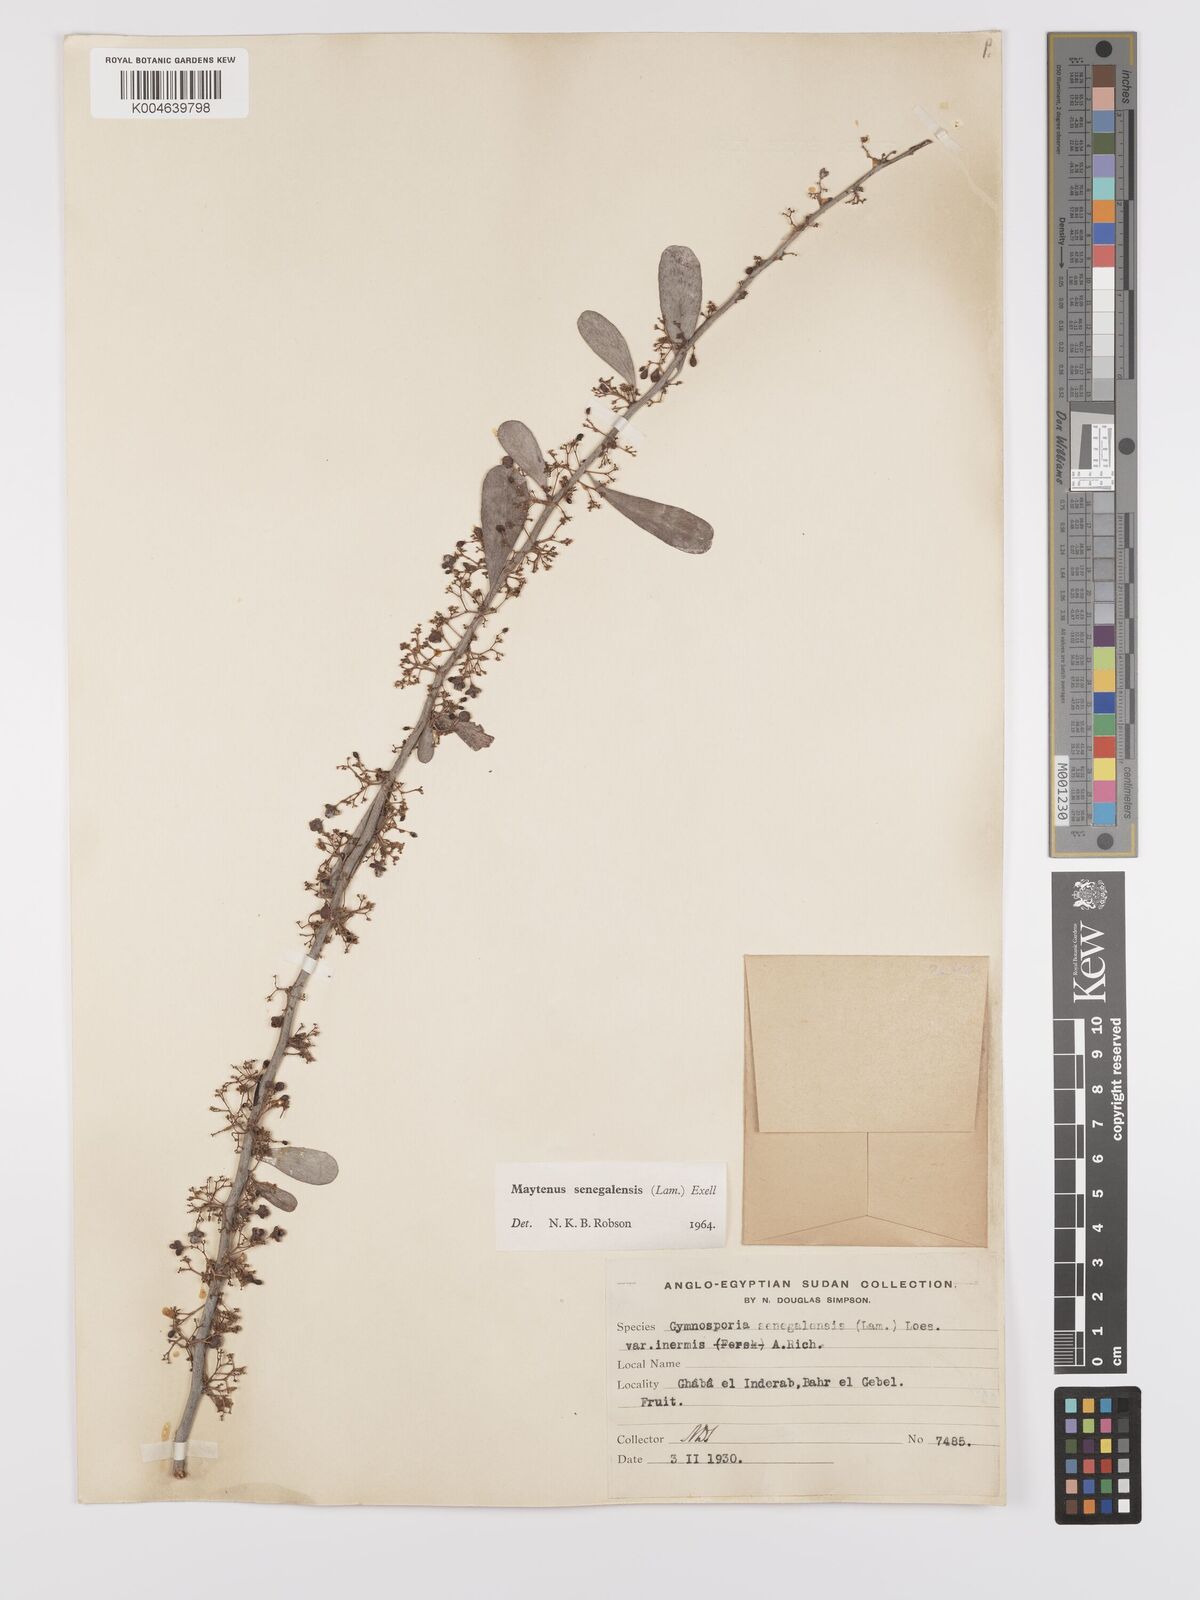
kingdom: Plantae
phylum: Tracheophyta
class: Magnoliopsida
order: Celastrales
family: Celastraceae
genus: Gymnosporia
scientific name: Gymnosporia senegalensis
